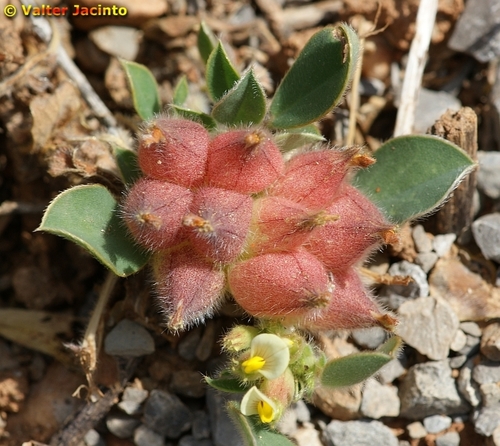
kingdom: Plantae
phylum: Tracheophyta
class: Magnoliopsida
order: Fabales
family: Fabaceae
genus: Tripodion
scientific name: Tripodion tetraphyllum
